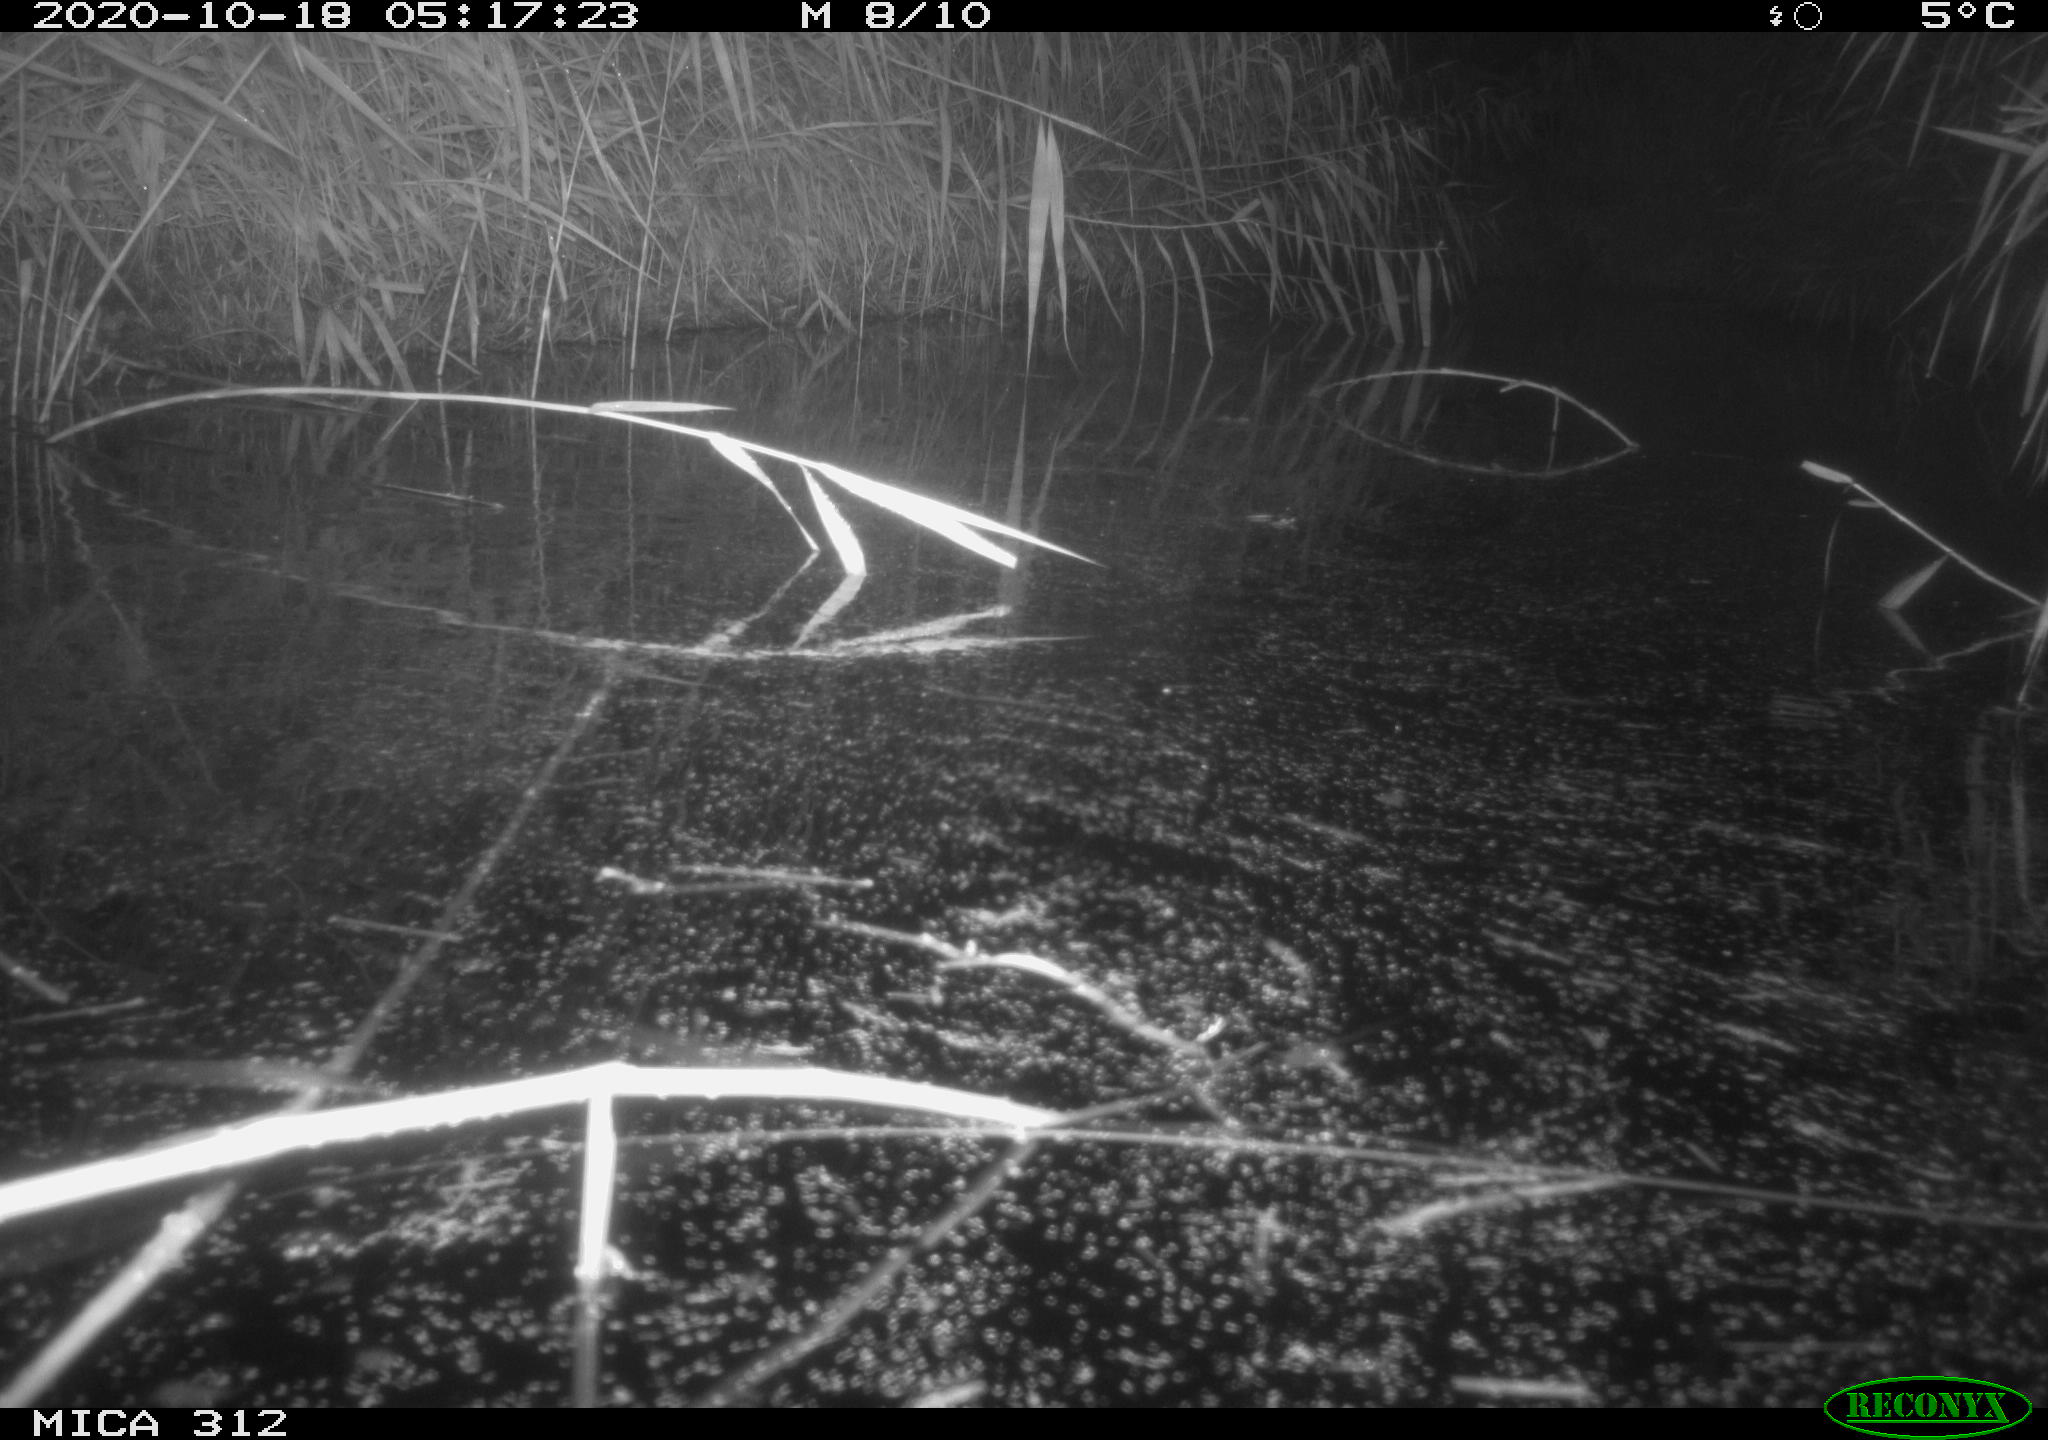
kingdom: Animalia
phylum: Chordata
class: Mammalia
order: Rodentia
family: Muridae
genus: Rattus
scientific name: Rattus norvegicus
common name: Brown rat
